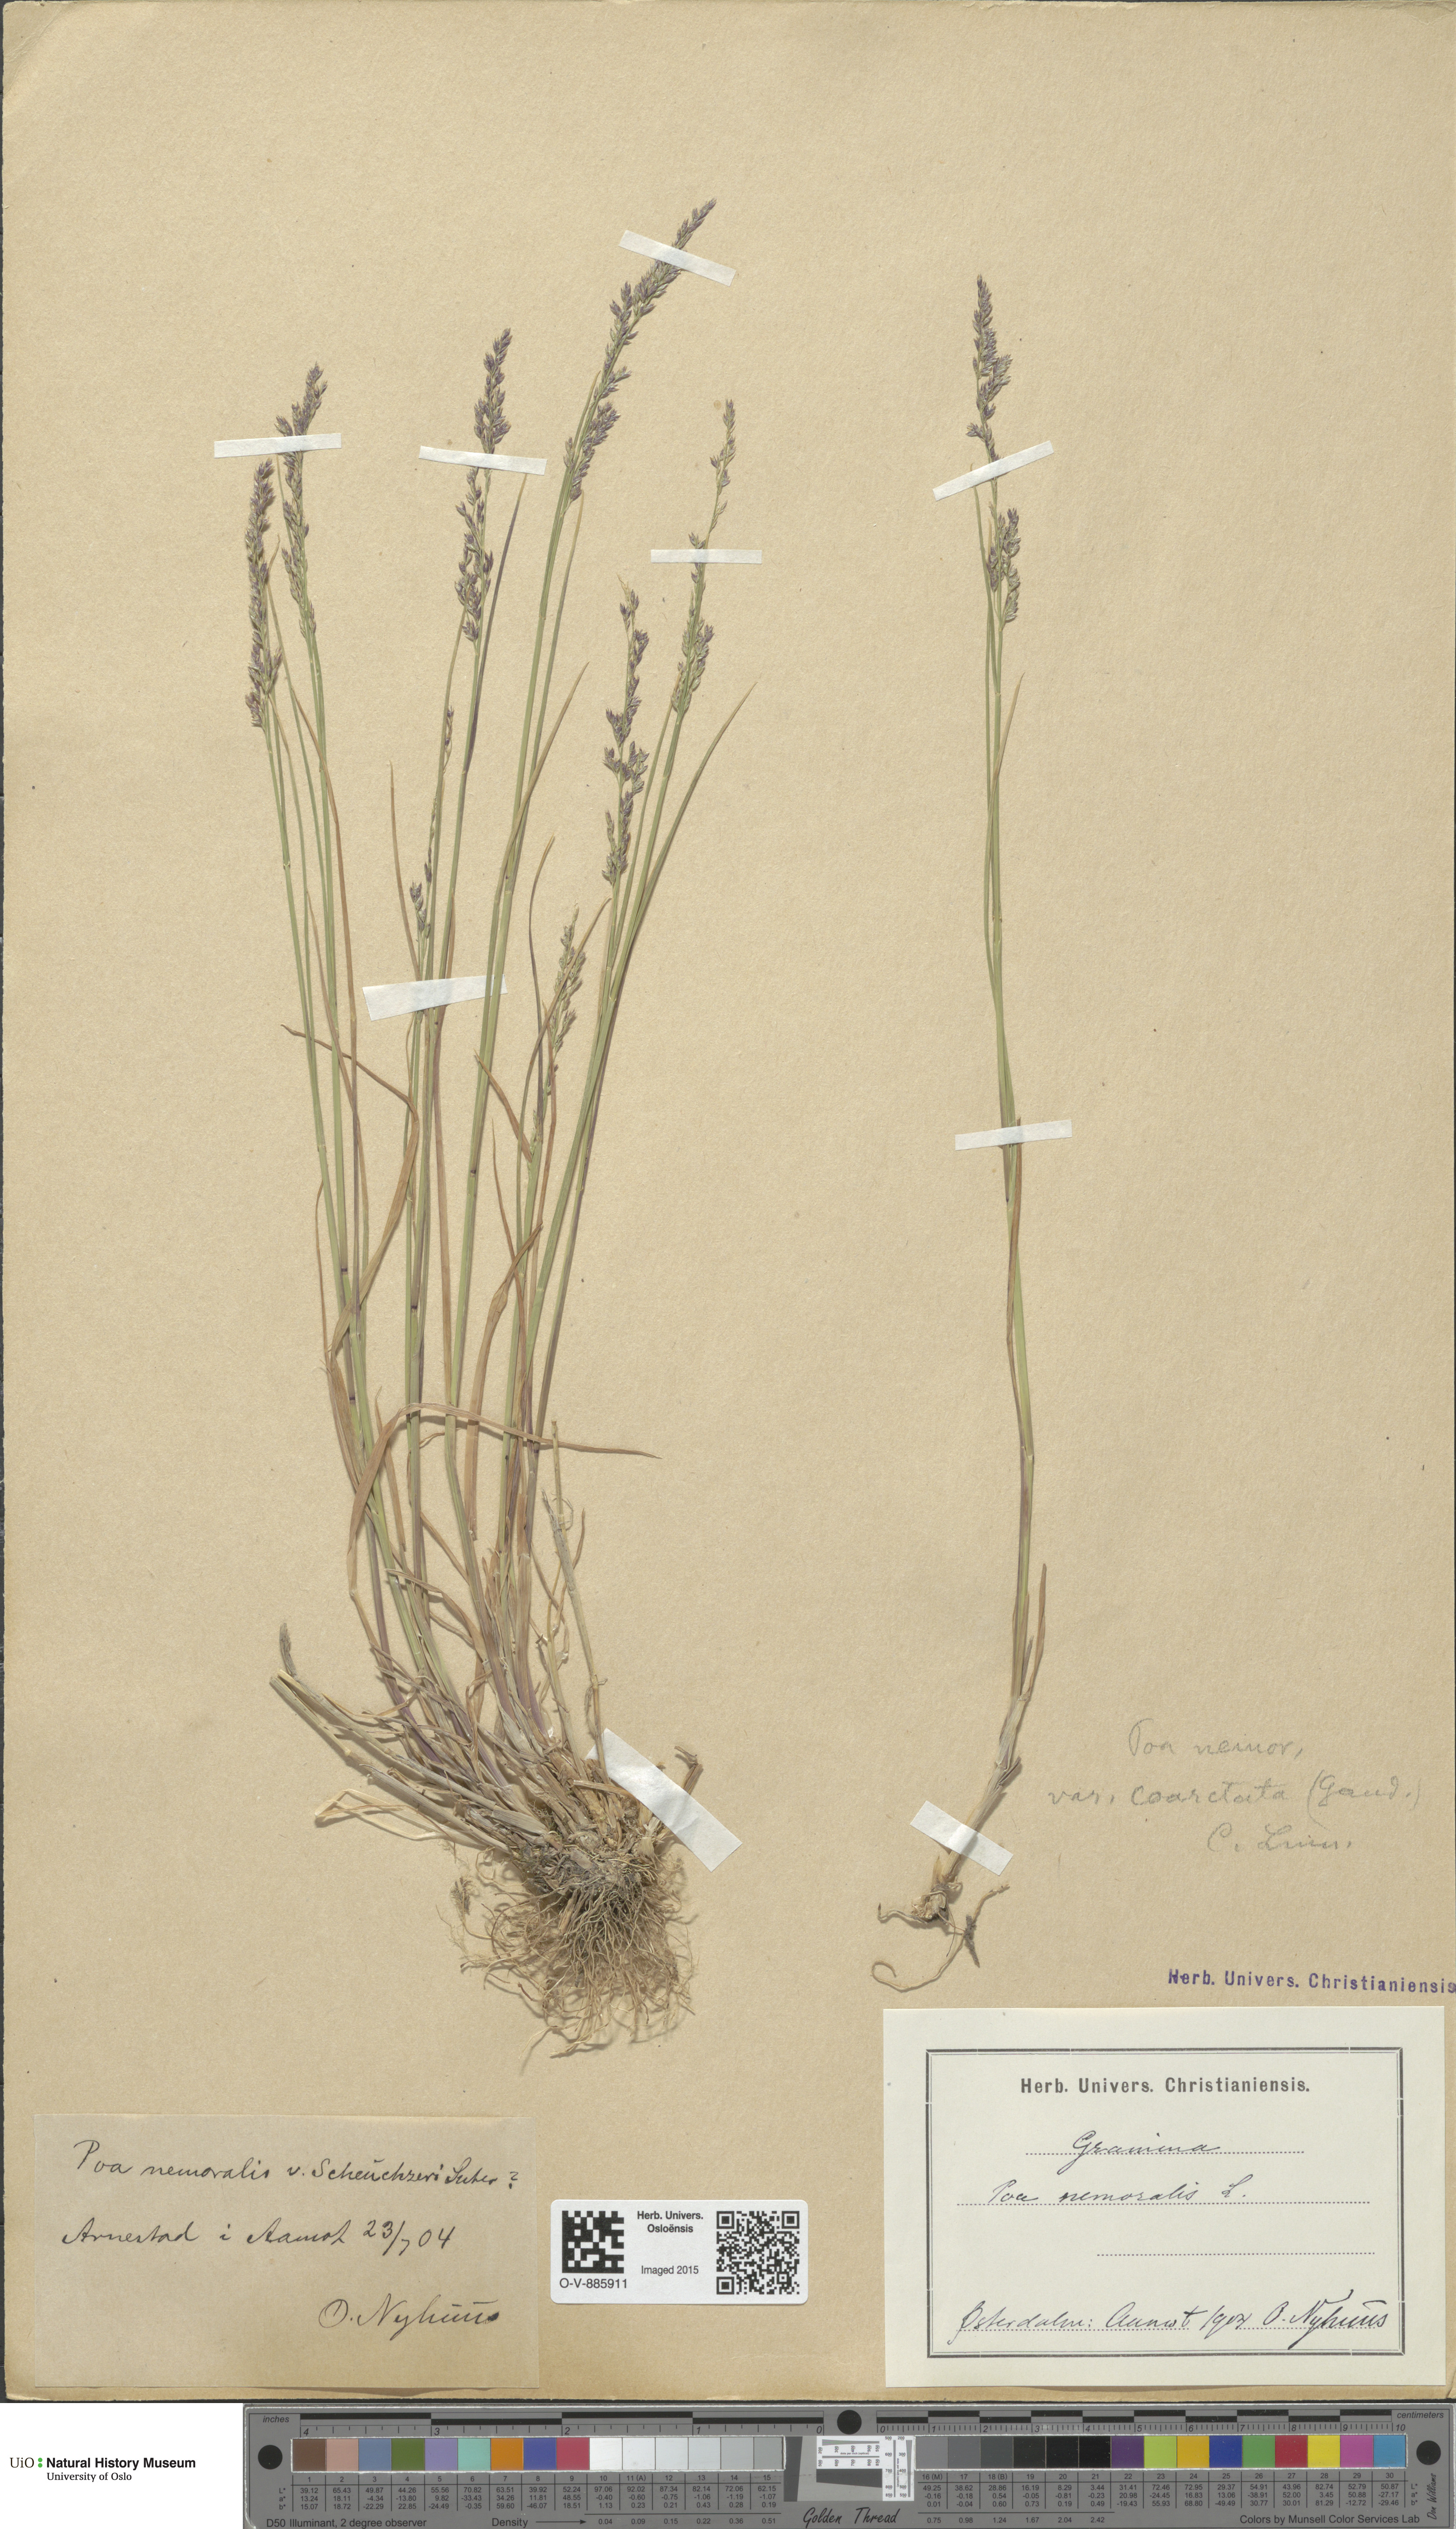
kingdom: Plantae
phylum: Tracheophyta
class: Liliopsida
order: Poales
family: Poaceae
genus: Poa
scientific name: Poa nemoralis
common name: Wood bluegrass
